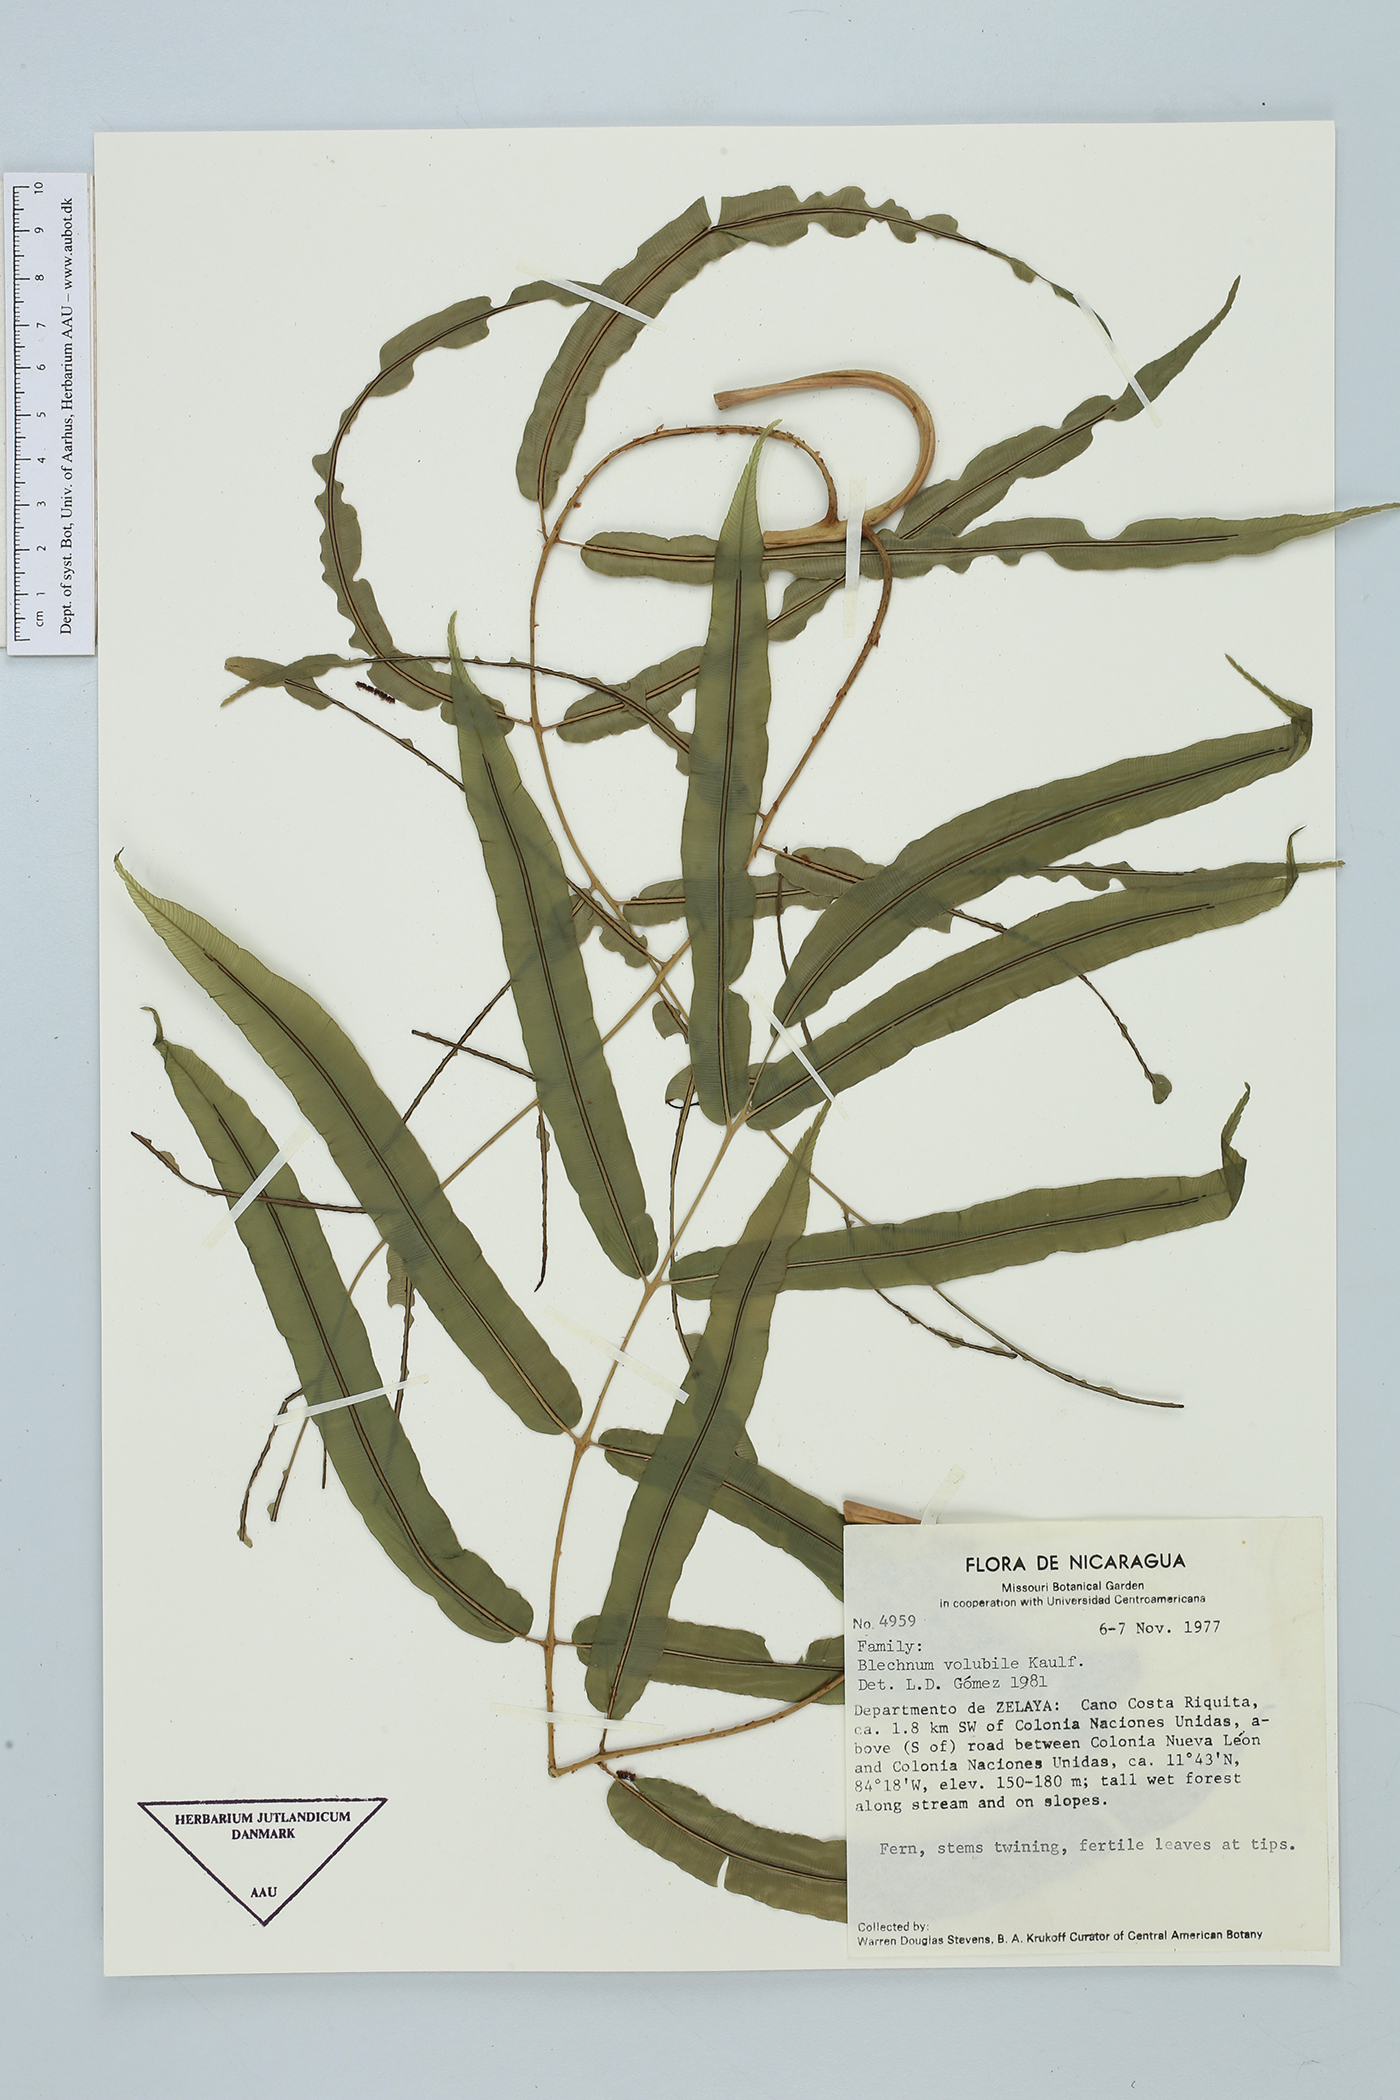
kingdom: Plantae
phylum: Tracheophyta
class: Polypodiopsida
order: Polypodiales
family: Blechnaceae
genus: Salpichlaena
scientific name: Salpichlaena volubilis
